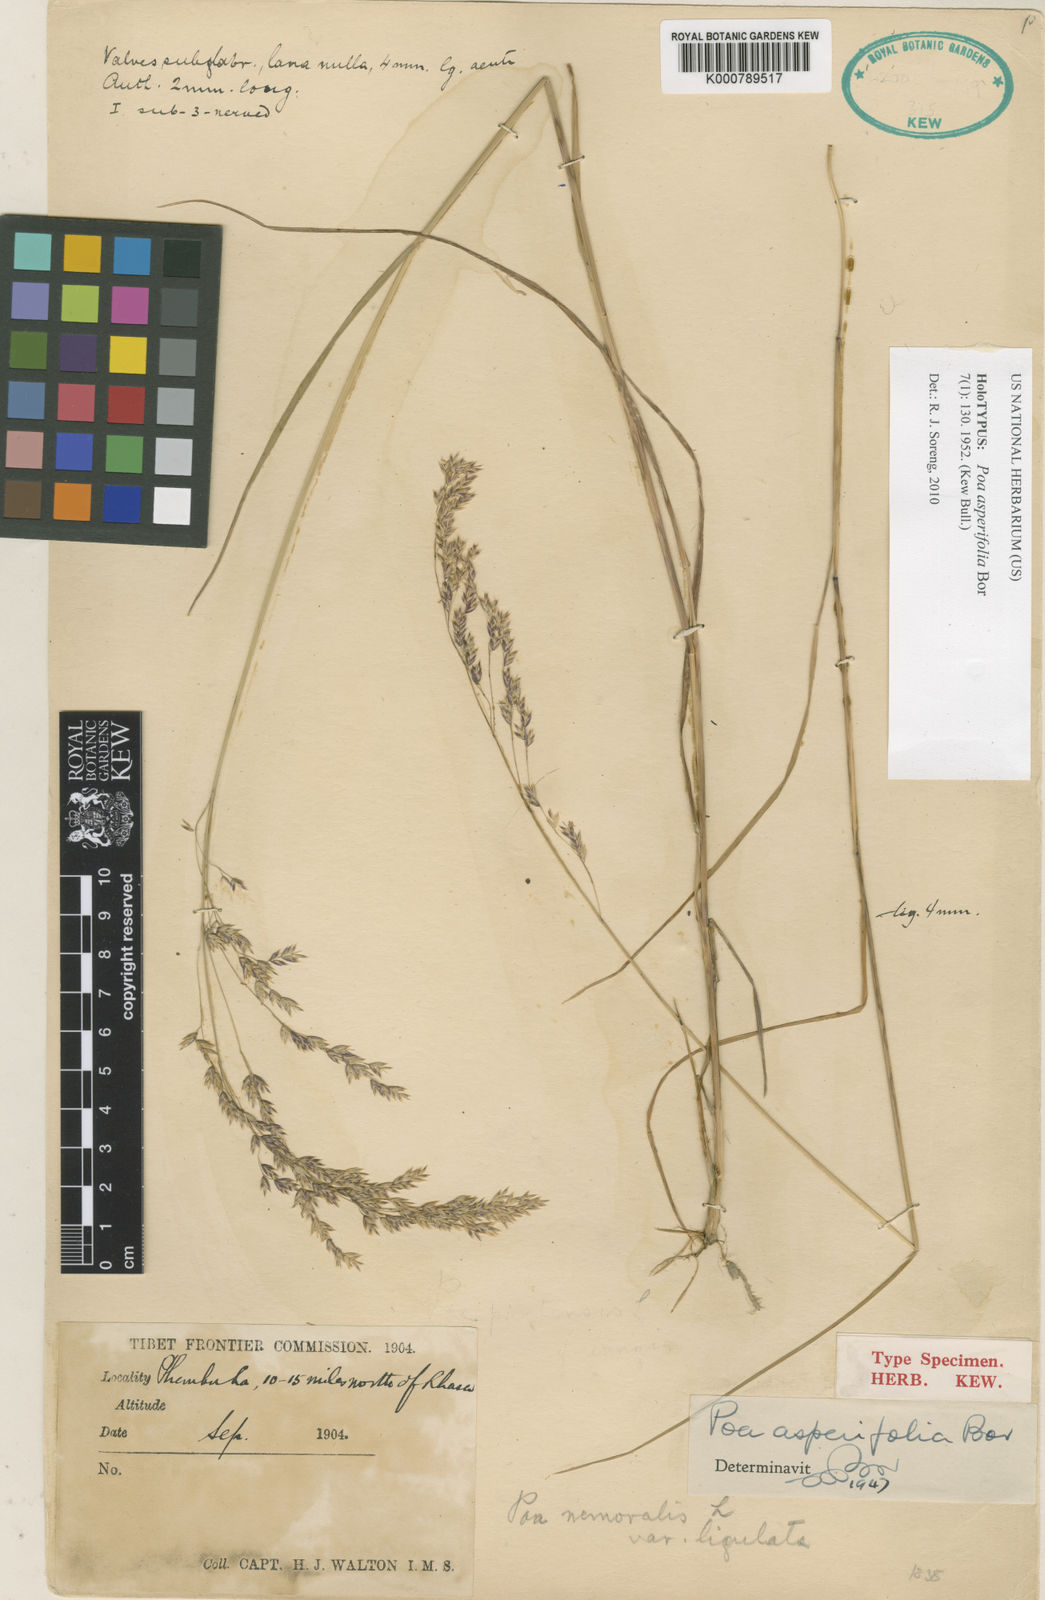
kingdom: Plantae
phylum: Tracheophyta
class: Liliopsida
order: Poales
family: Poaceae
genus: Poa
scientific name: Poa asperifolia
